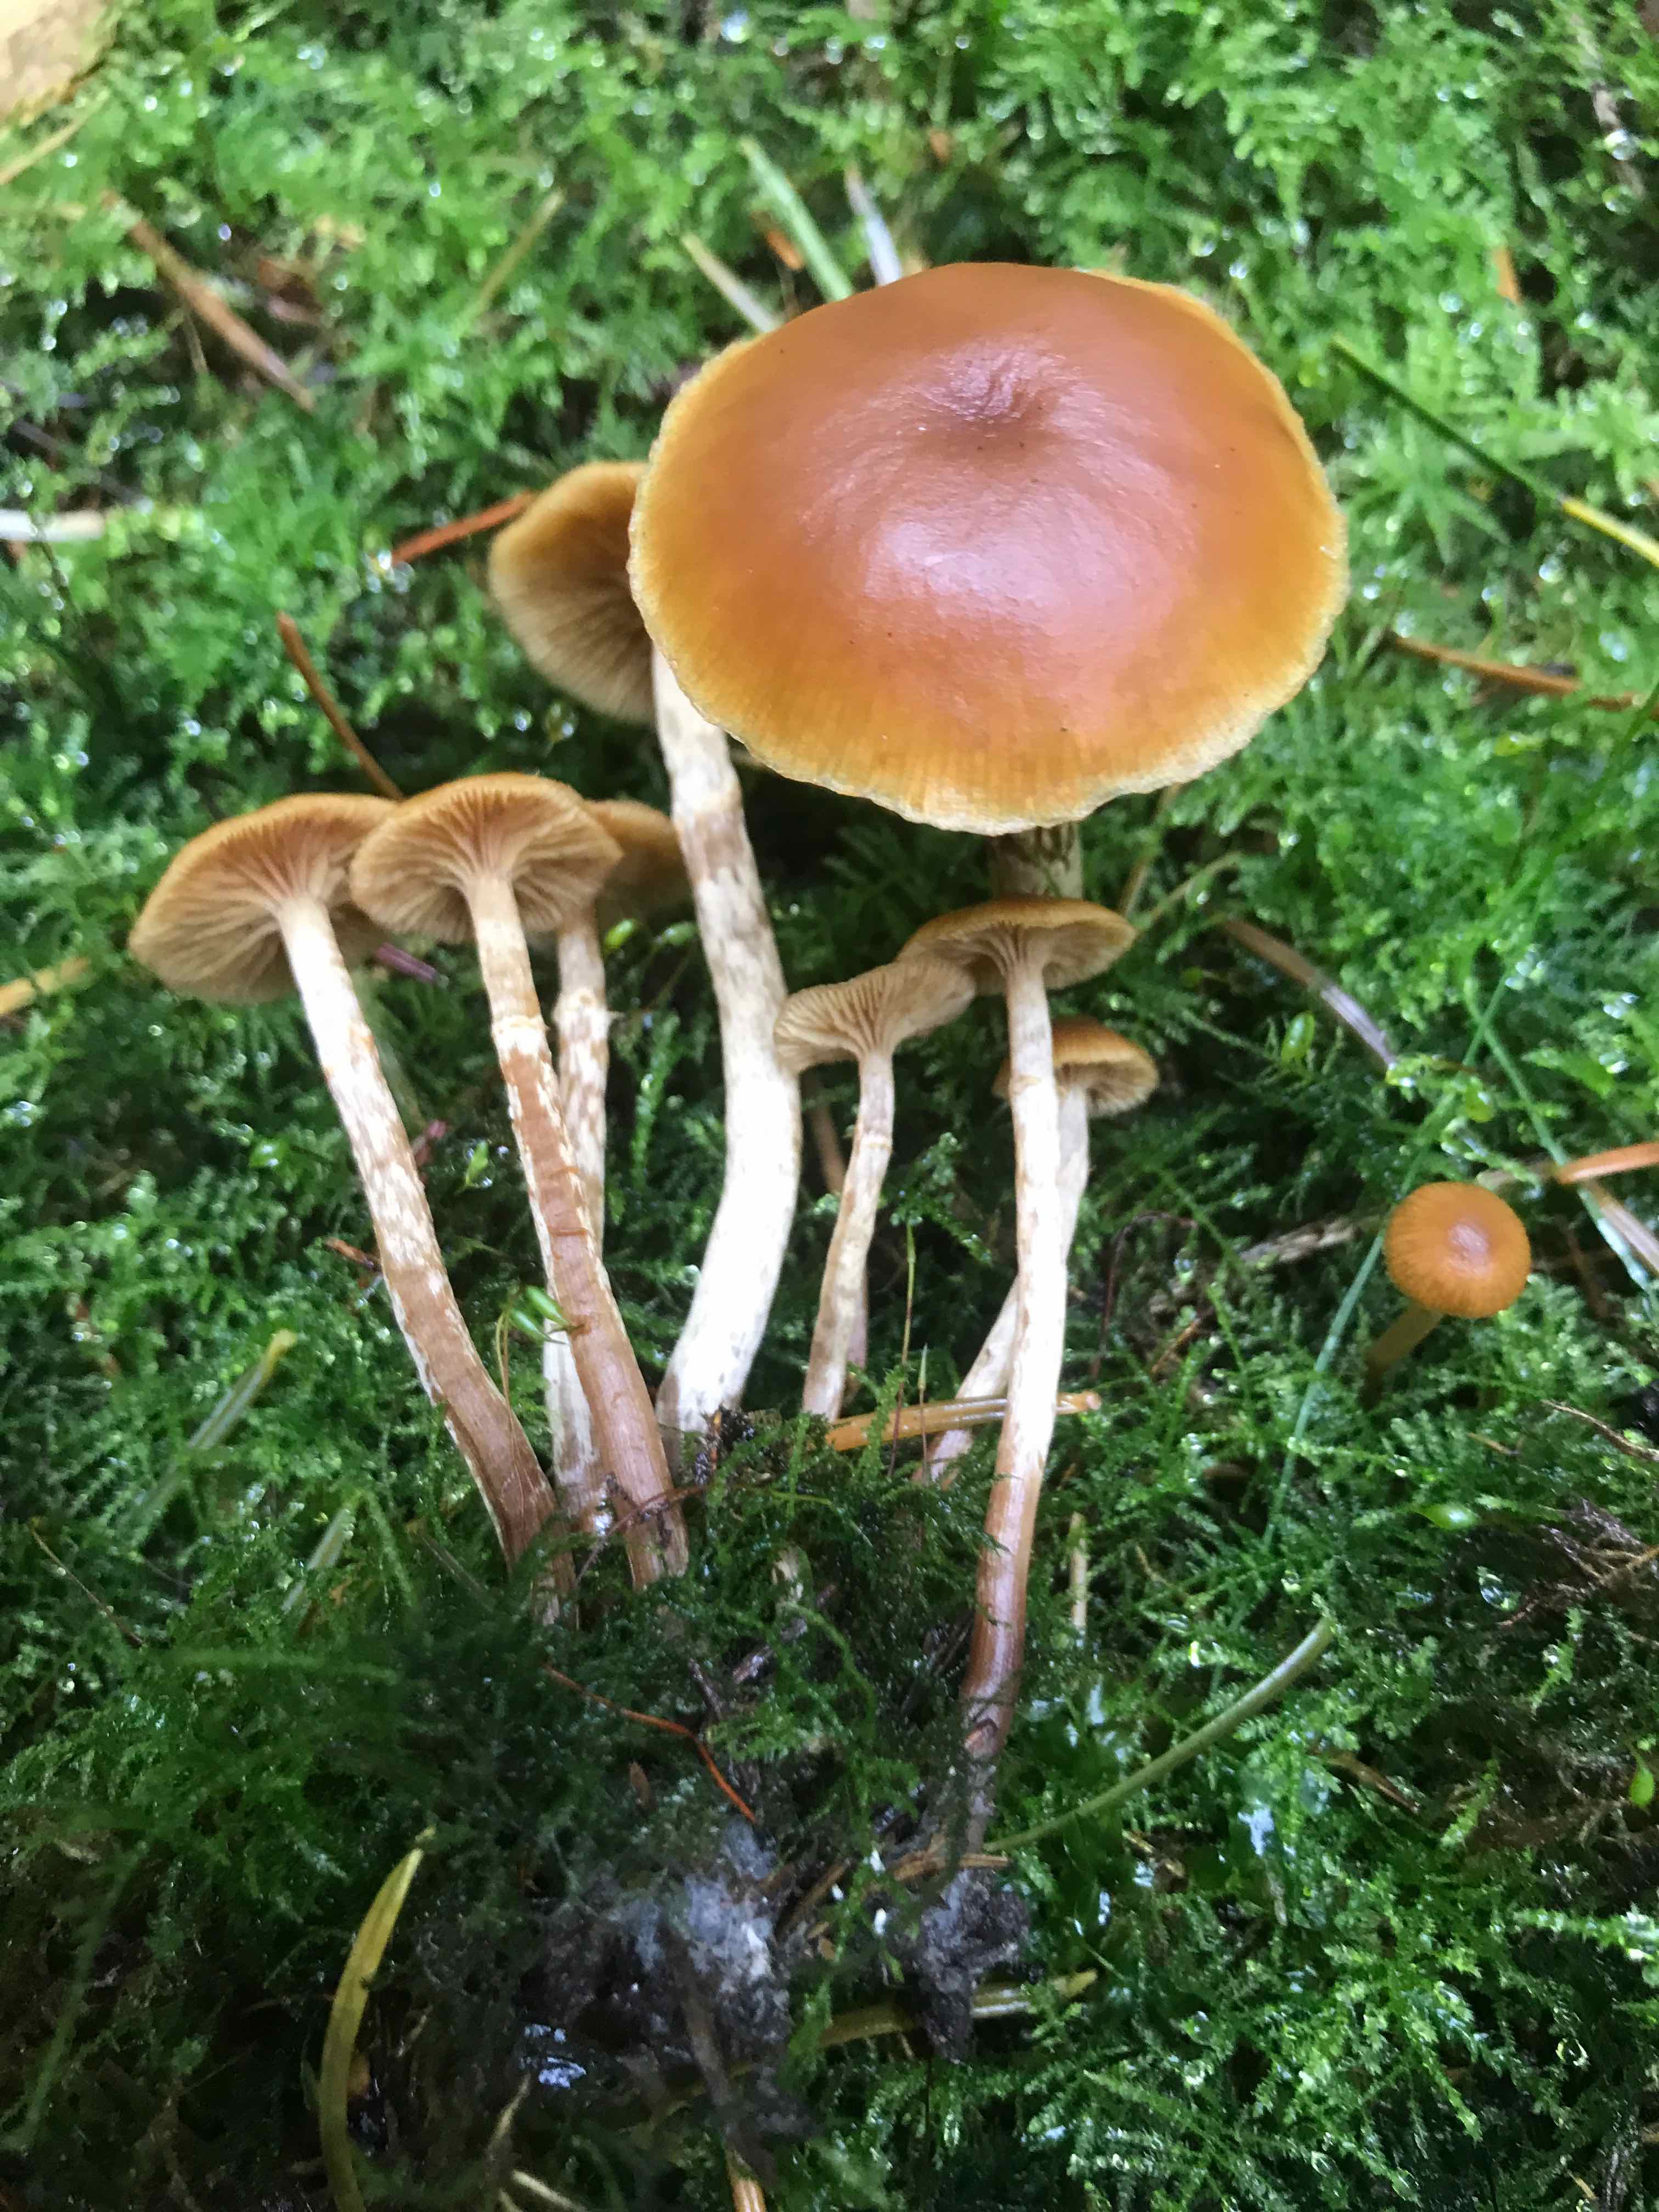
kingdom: Fungi
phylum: Basidiomycota
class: Agaricomycetes
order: Agaricales
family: Hymenogastraceae
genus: Galerina
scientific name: Galerina sideroides
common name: træflis-hjelmhat
